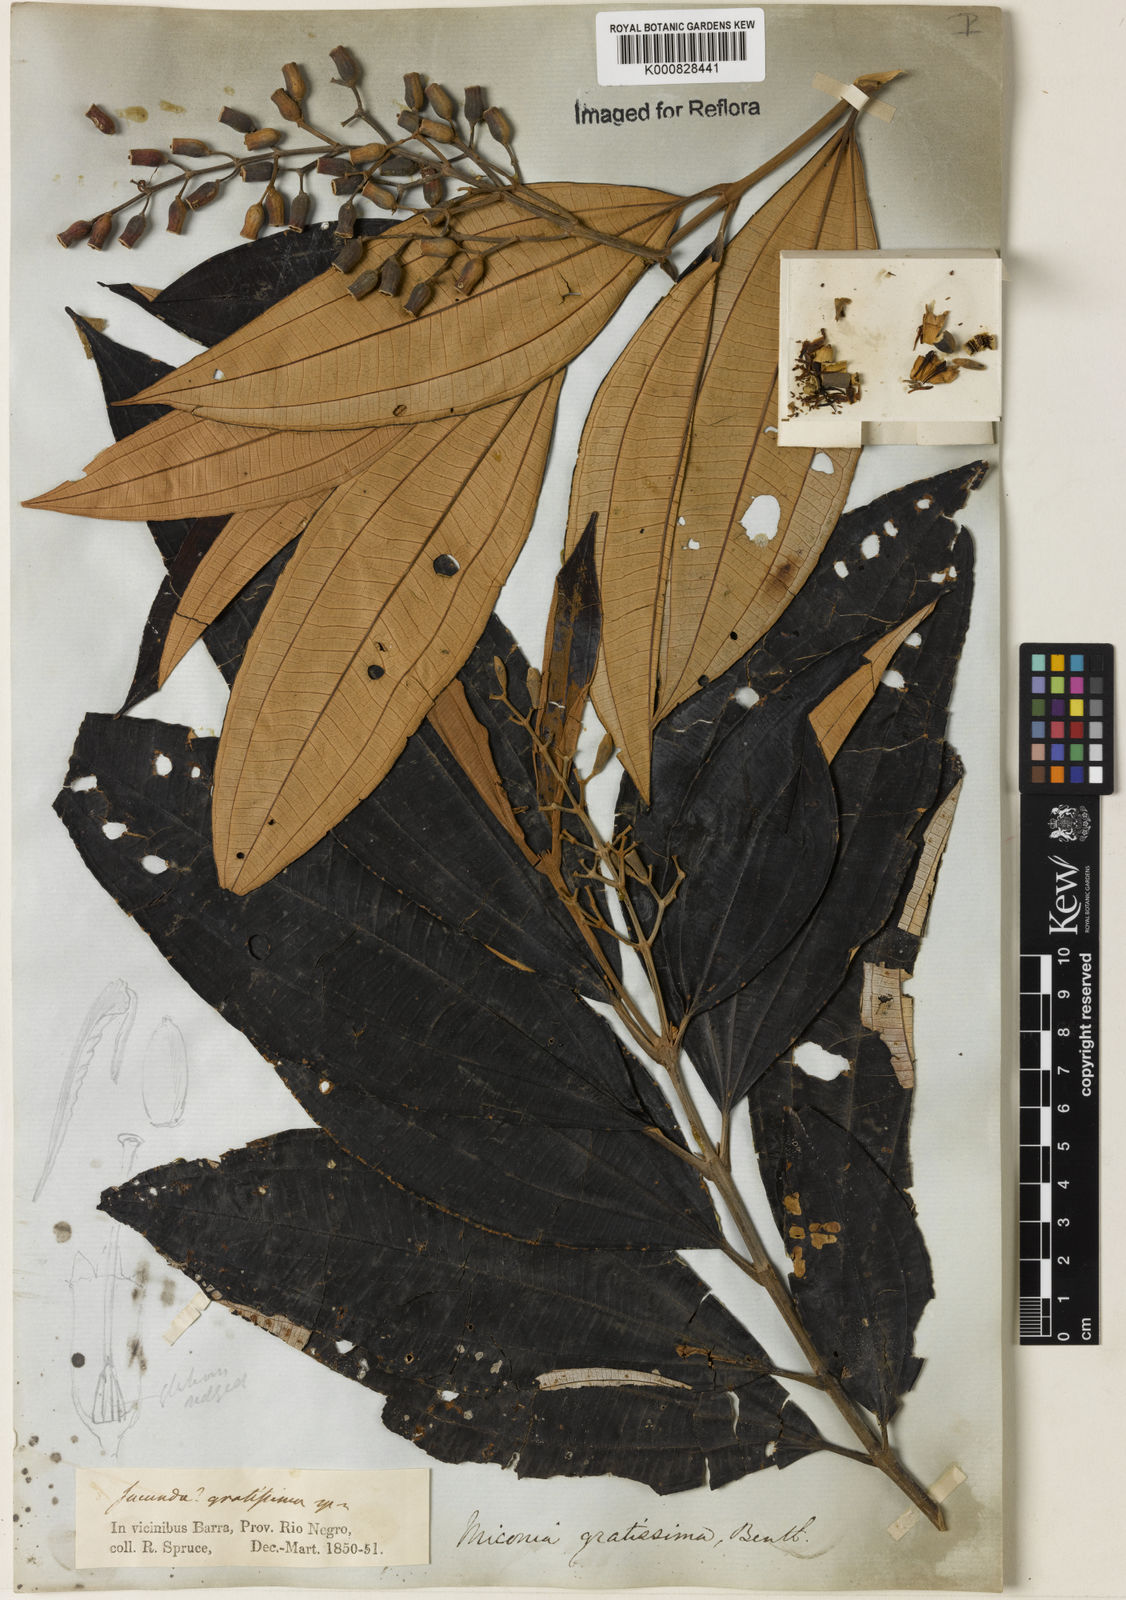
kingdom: Plantae
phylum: Tracheophyta
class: Magnoliopsida
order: Myrtales
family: Melastomataceae
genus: Miconia
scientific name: Miconia gratissima
